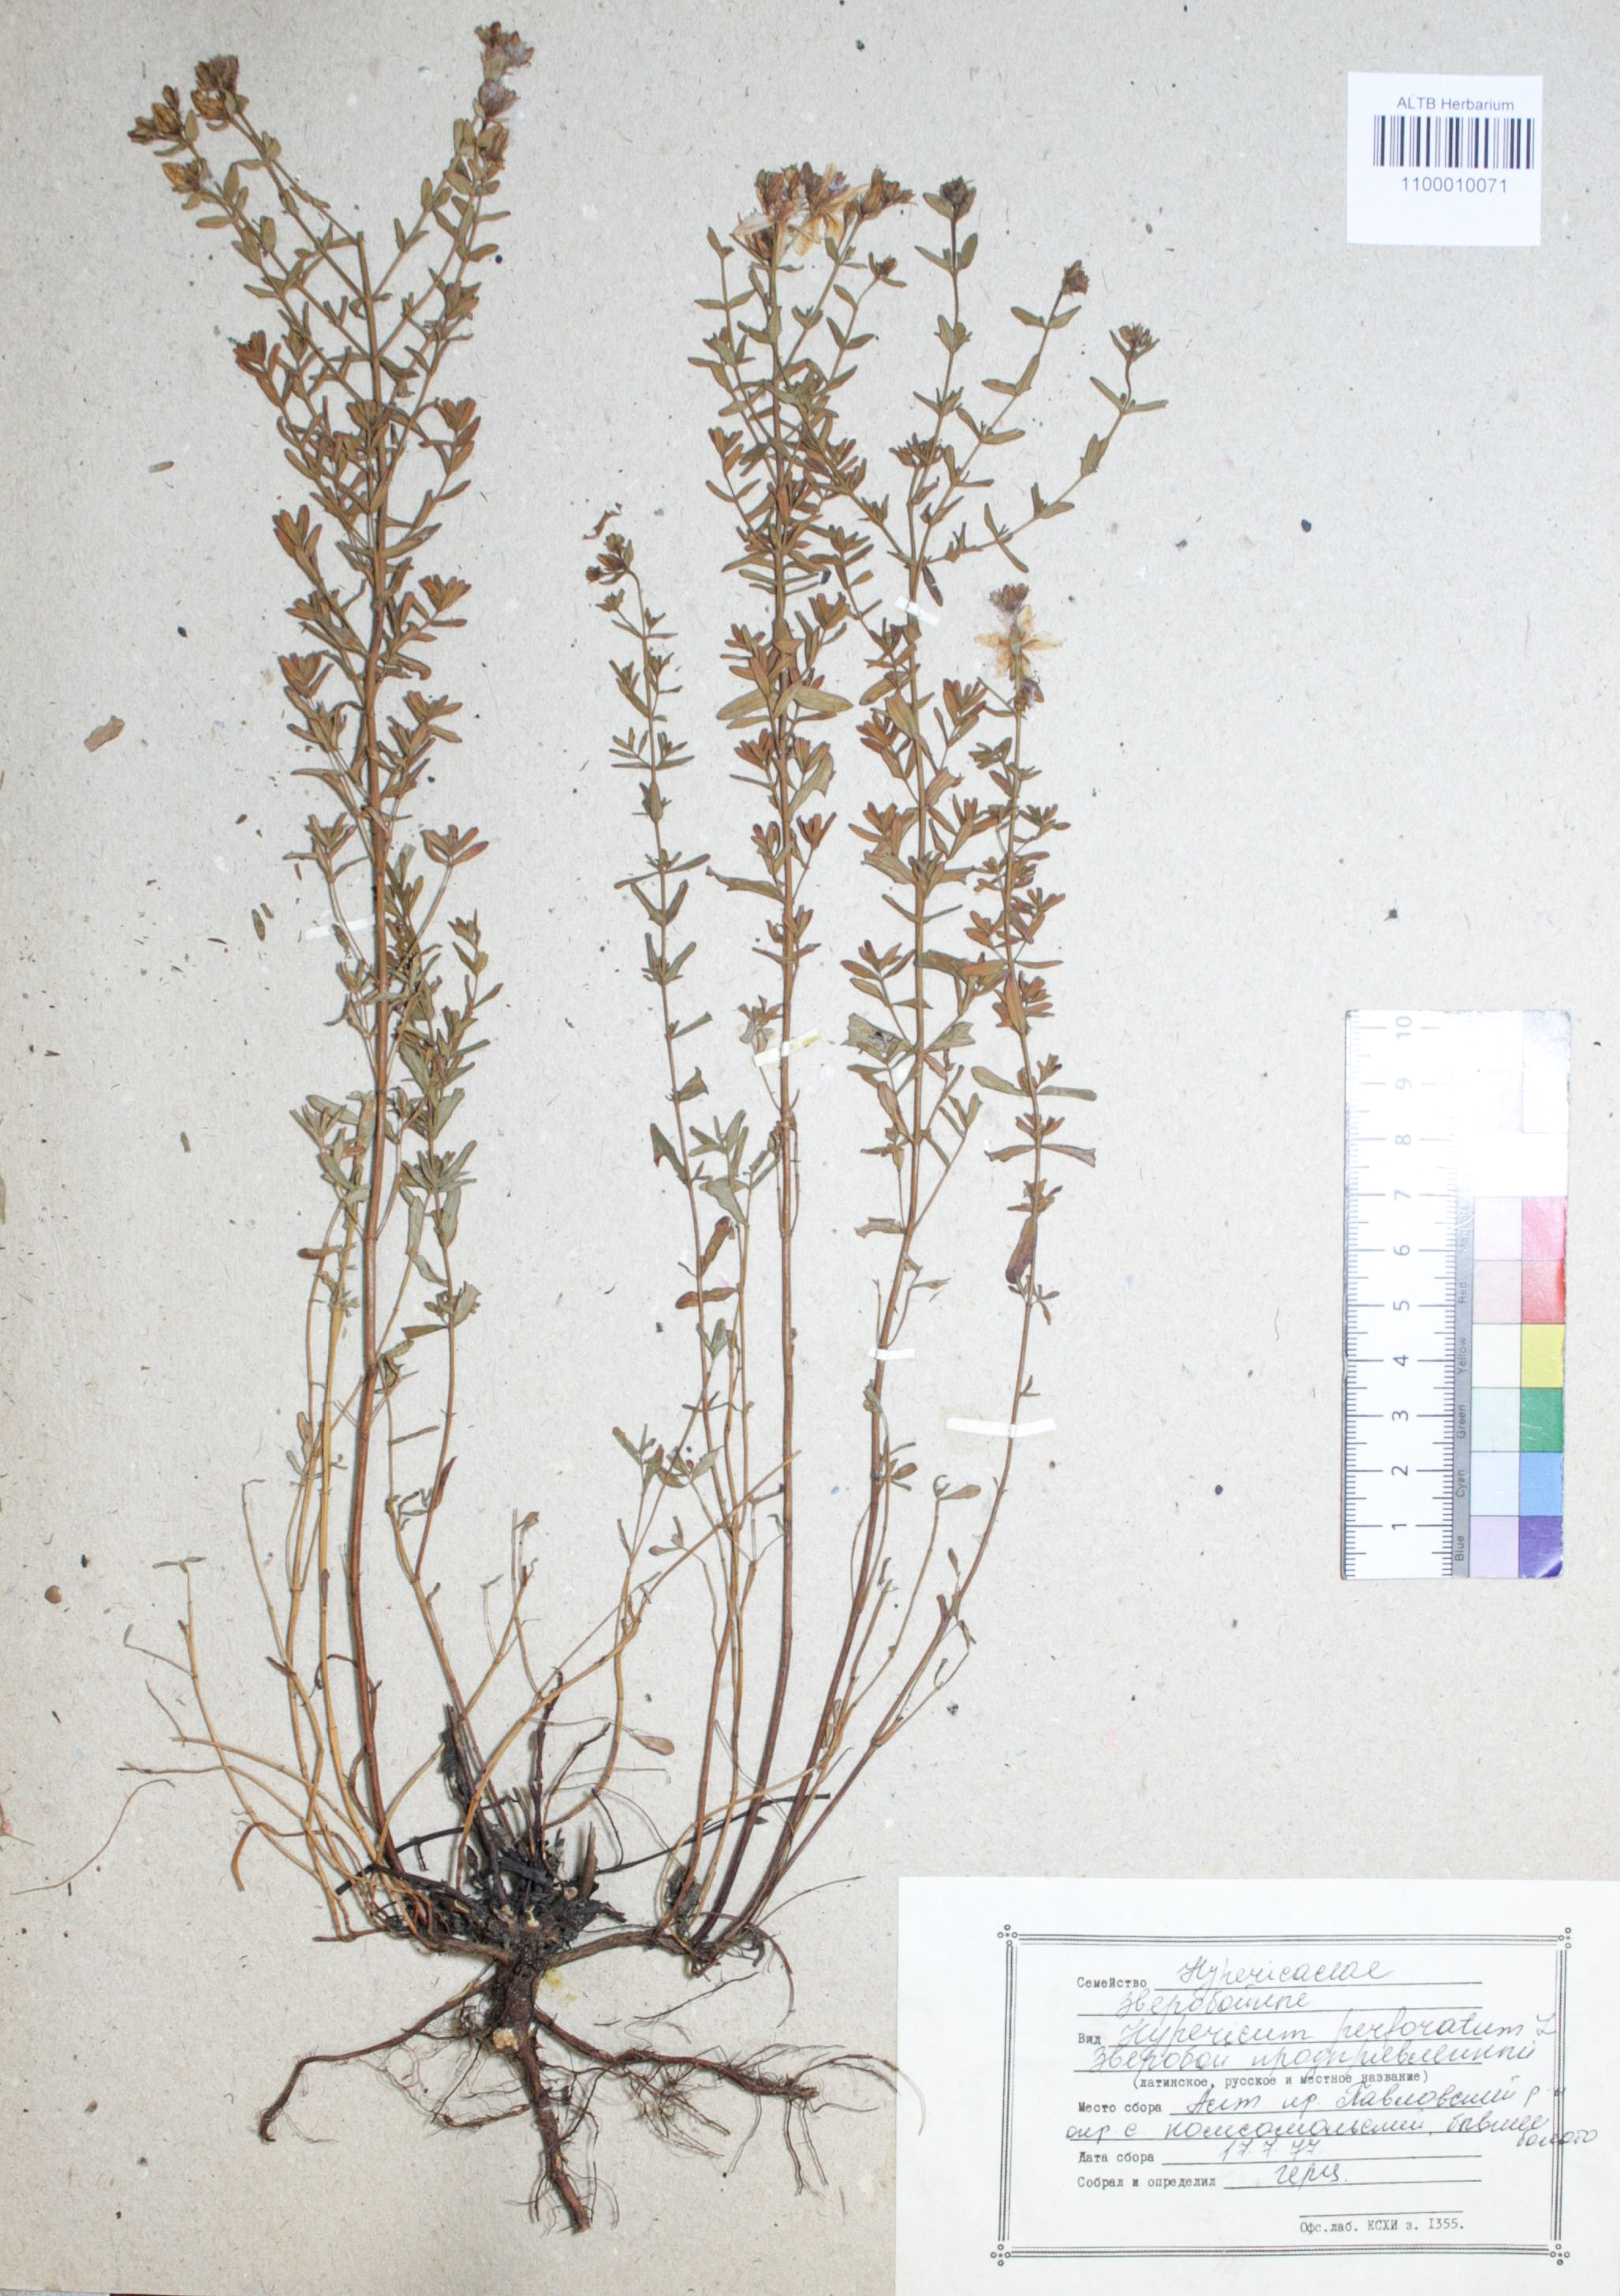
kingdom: Plantae
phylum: Tracheophyta
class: Magnoliopsida
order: Malpighiales
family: Hypericaceae
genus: Hypericum
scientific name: Hypericum perforatum
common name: Common st. johnswort
